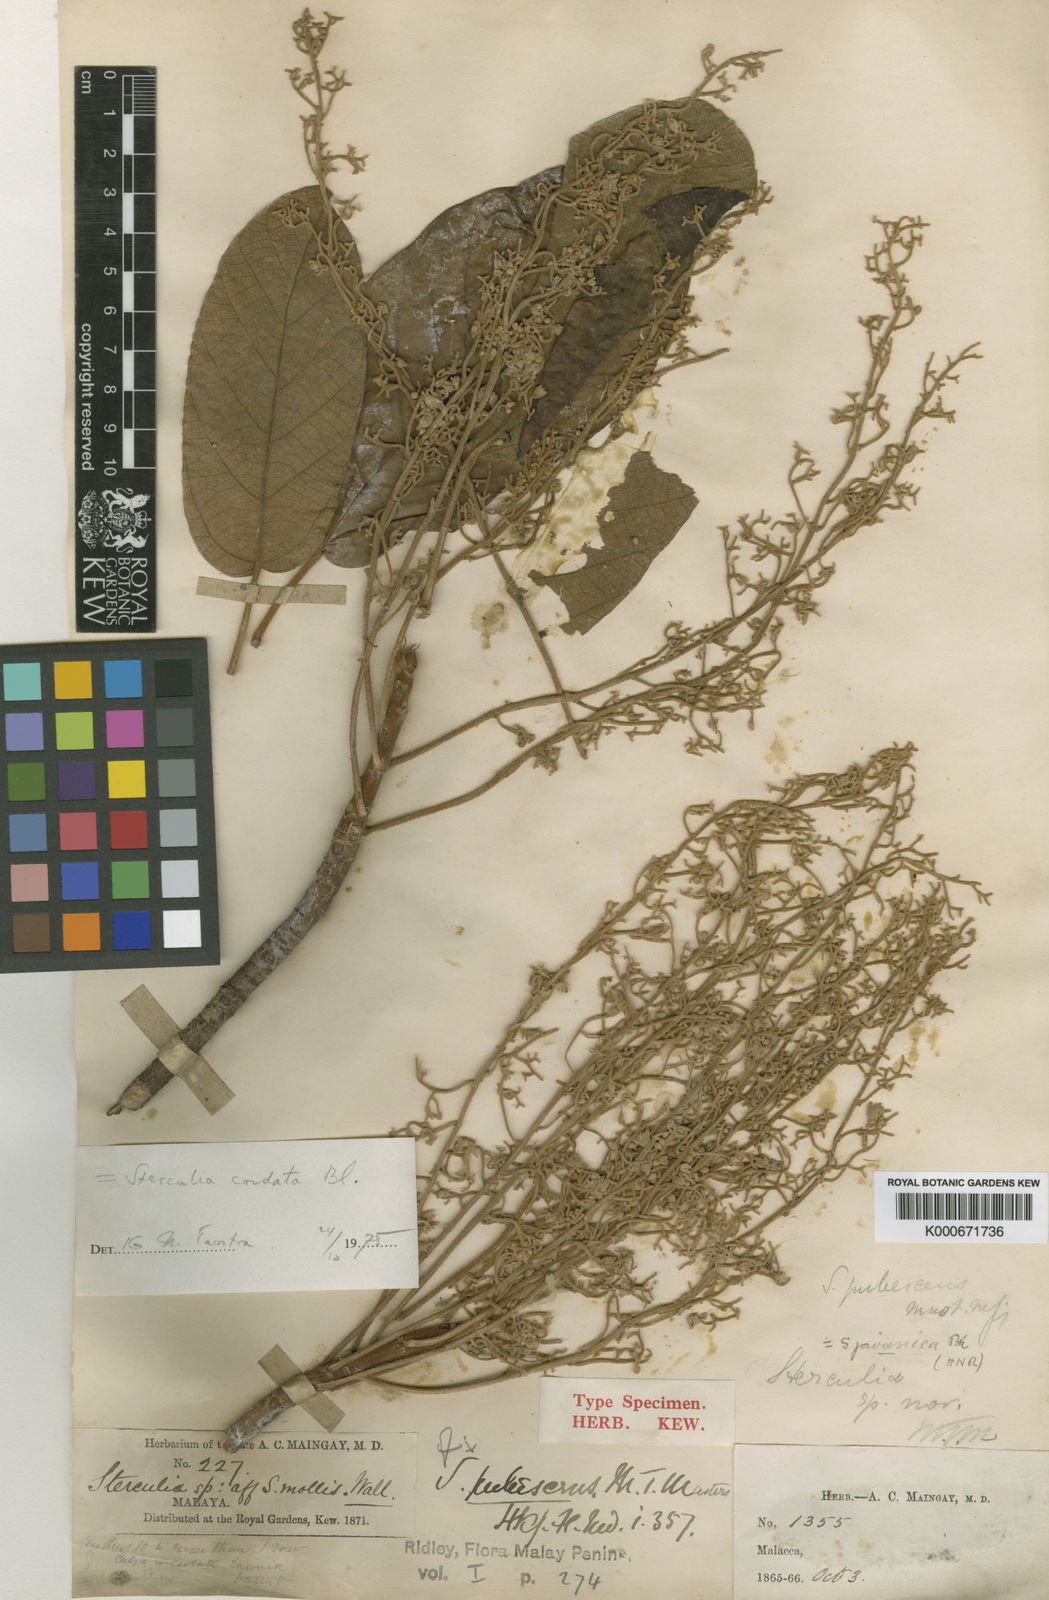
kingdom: Plantae
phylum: Tracheophyta
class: Magnoliopsida
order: Malvales
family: Malvaceae
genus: Sterculia
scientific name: Sterculia cordata
